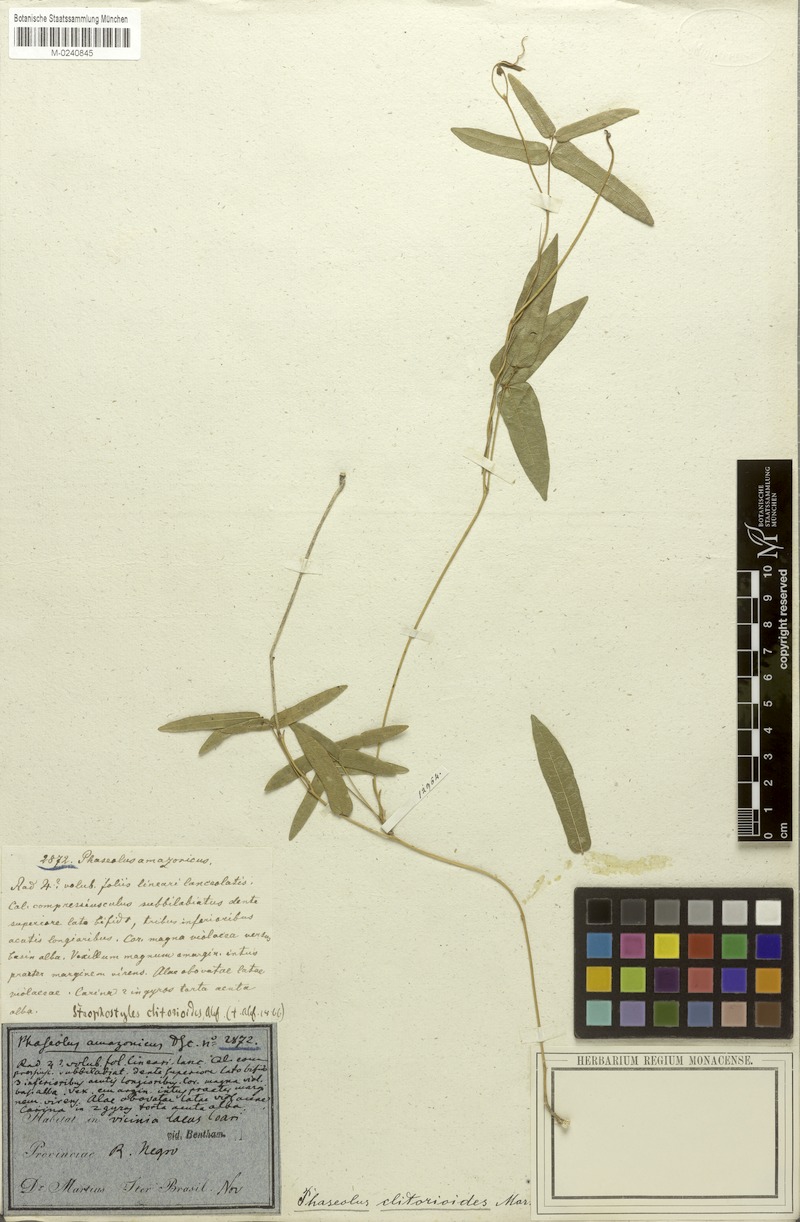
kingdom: Plantae
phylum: Tracheophyta
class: Magnoliopsida
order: Fabales
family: Fabaceae
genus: Ancistrotropis
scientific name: Ancistrotropis clitorioides
